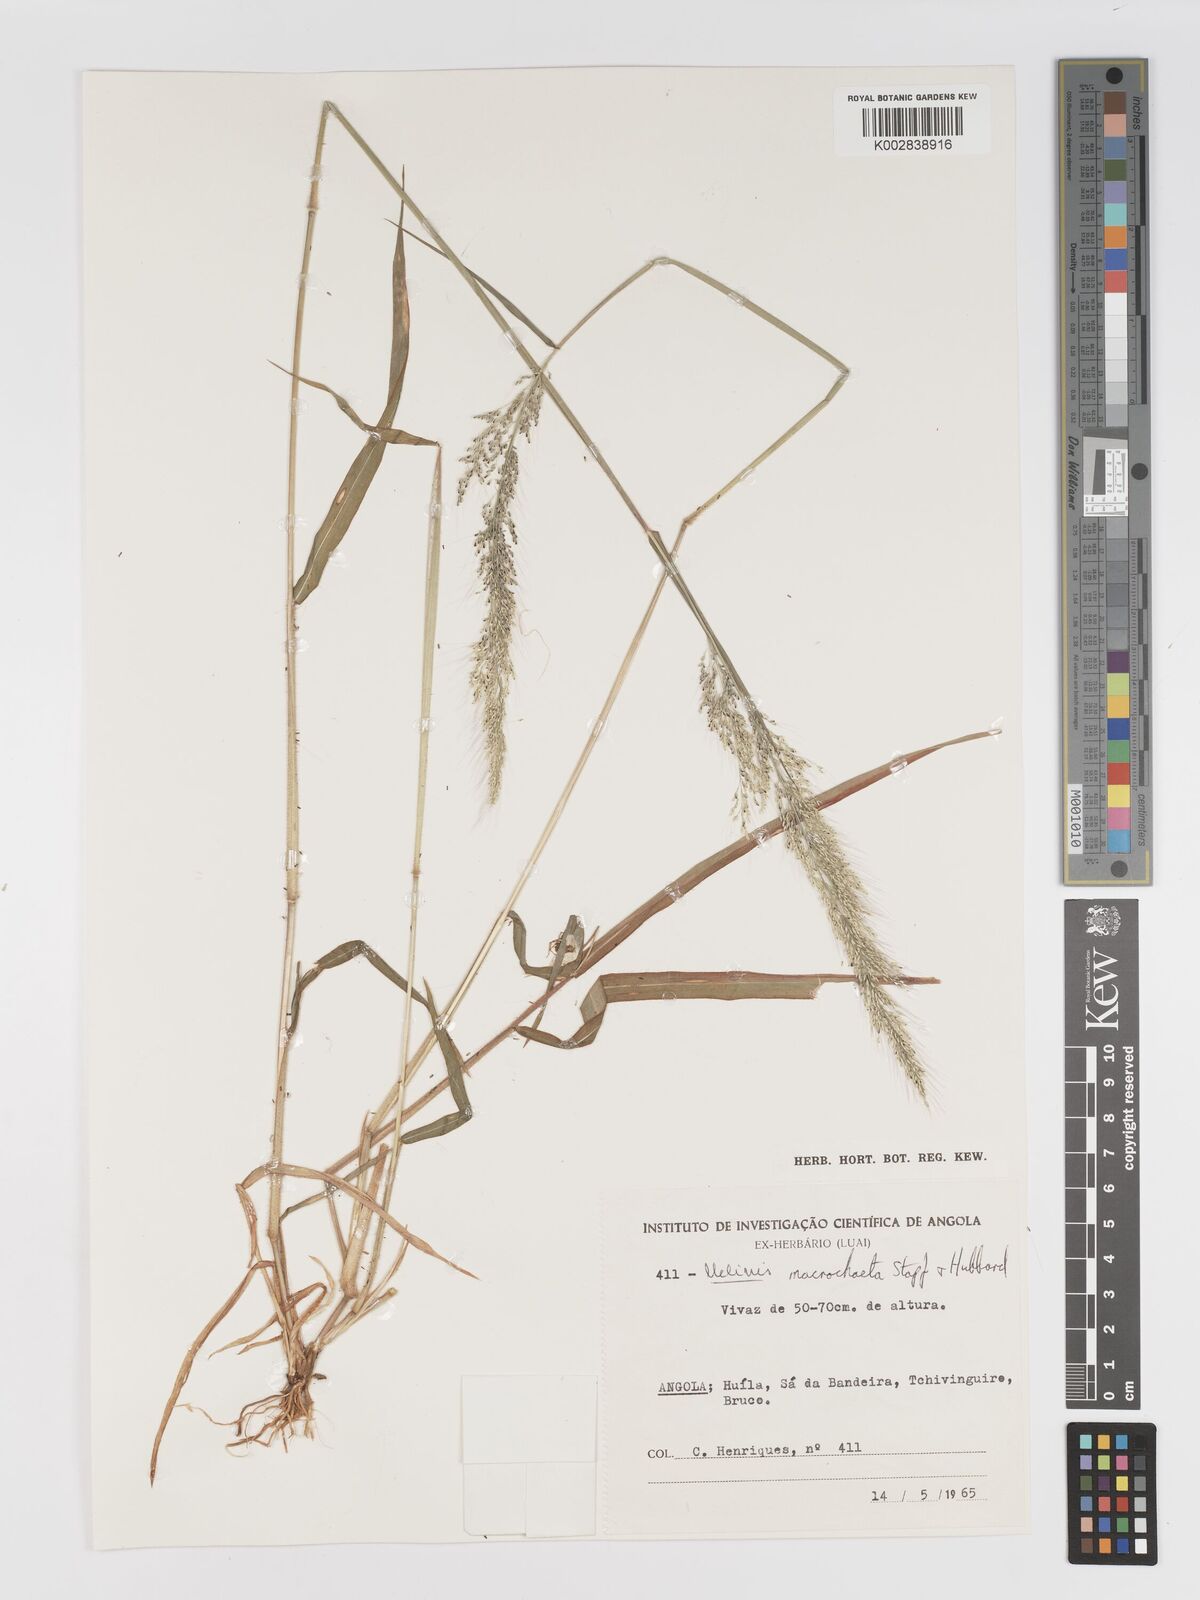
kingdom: Plantae
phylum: Tracheophyta
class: Liliopsida
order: Poales
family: Poaceae
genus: Melinis
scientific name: Melinis macrochaeta
